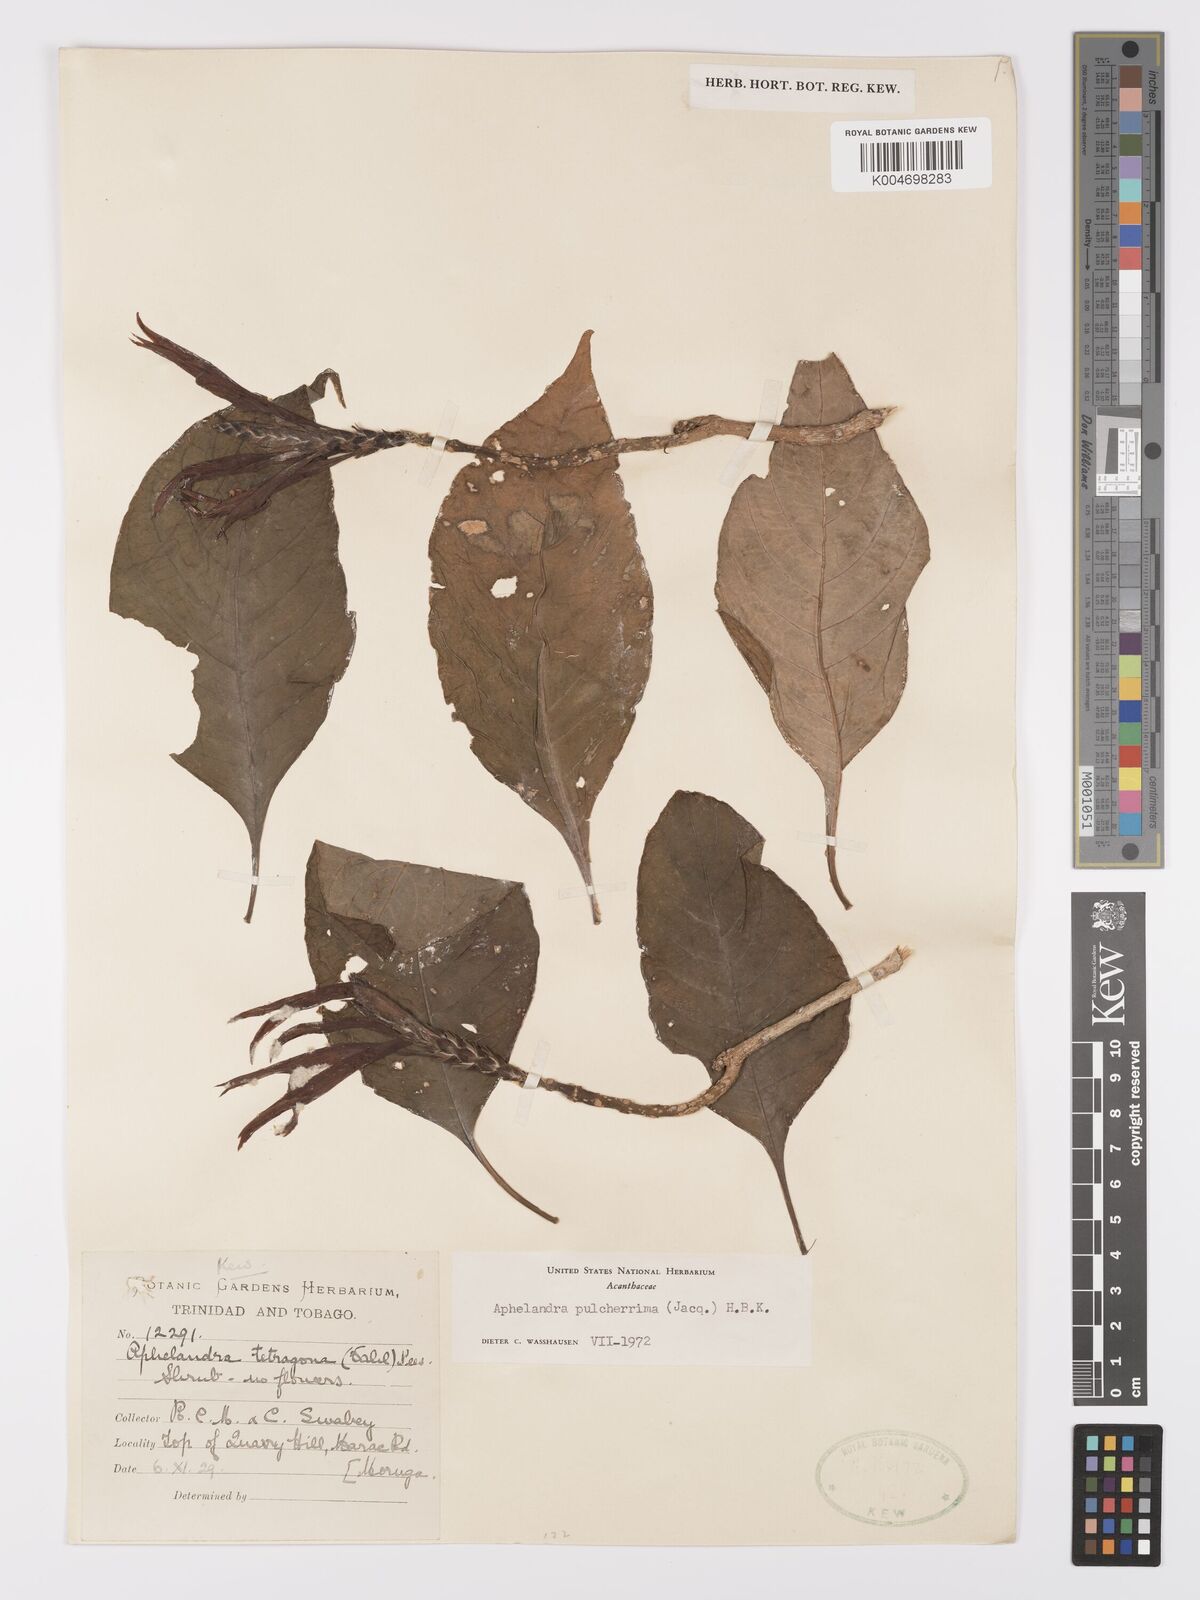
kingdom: Plantae
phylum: Tracheophyta
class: Magnoliopsida
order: Lamiales
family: Acanthaceae
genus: Aphelandra
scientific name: Aphelandra
